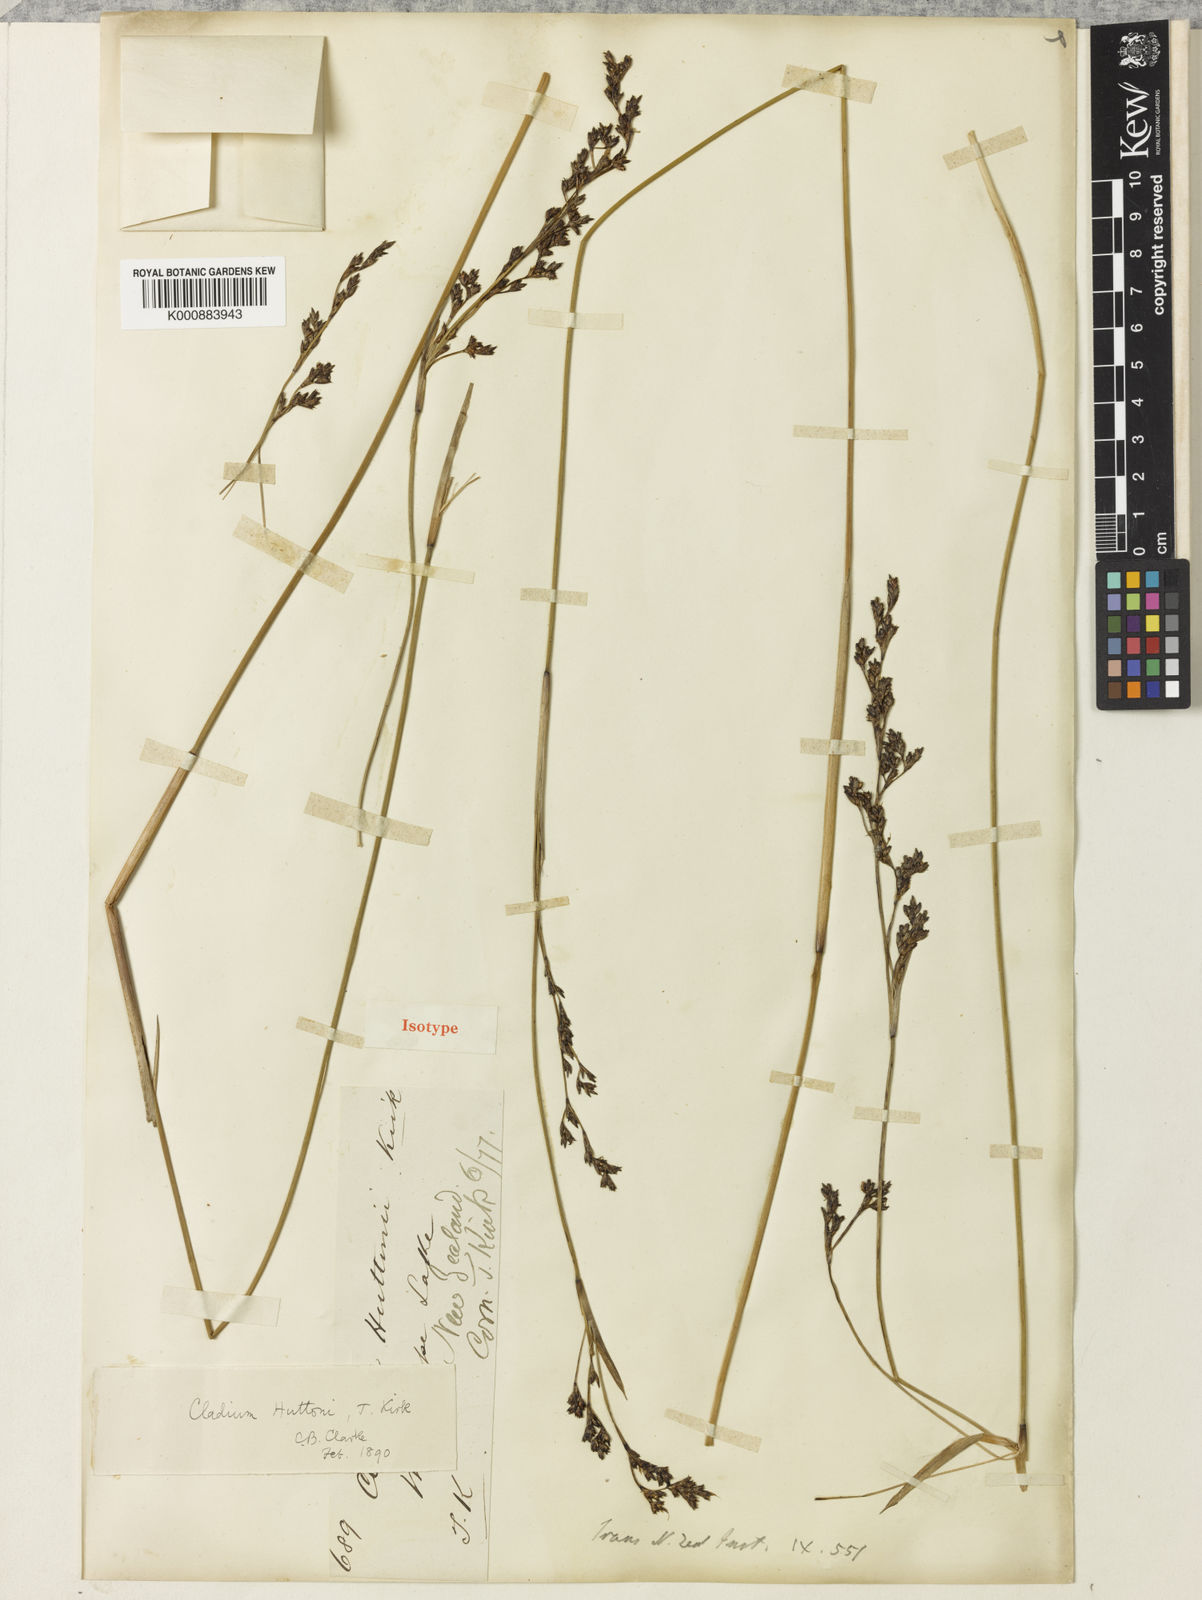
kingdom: Plantae
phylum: Tracheophyta
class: Liliopsida
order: Poales
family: Cyperaceae
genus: Machaerina
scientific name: Machaerina huttonii
